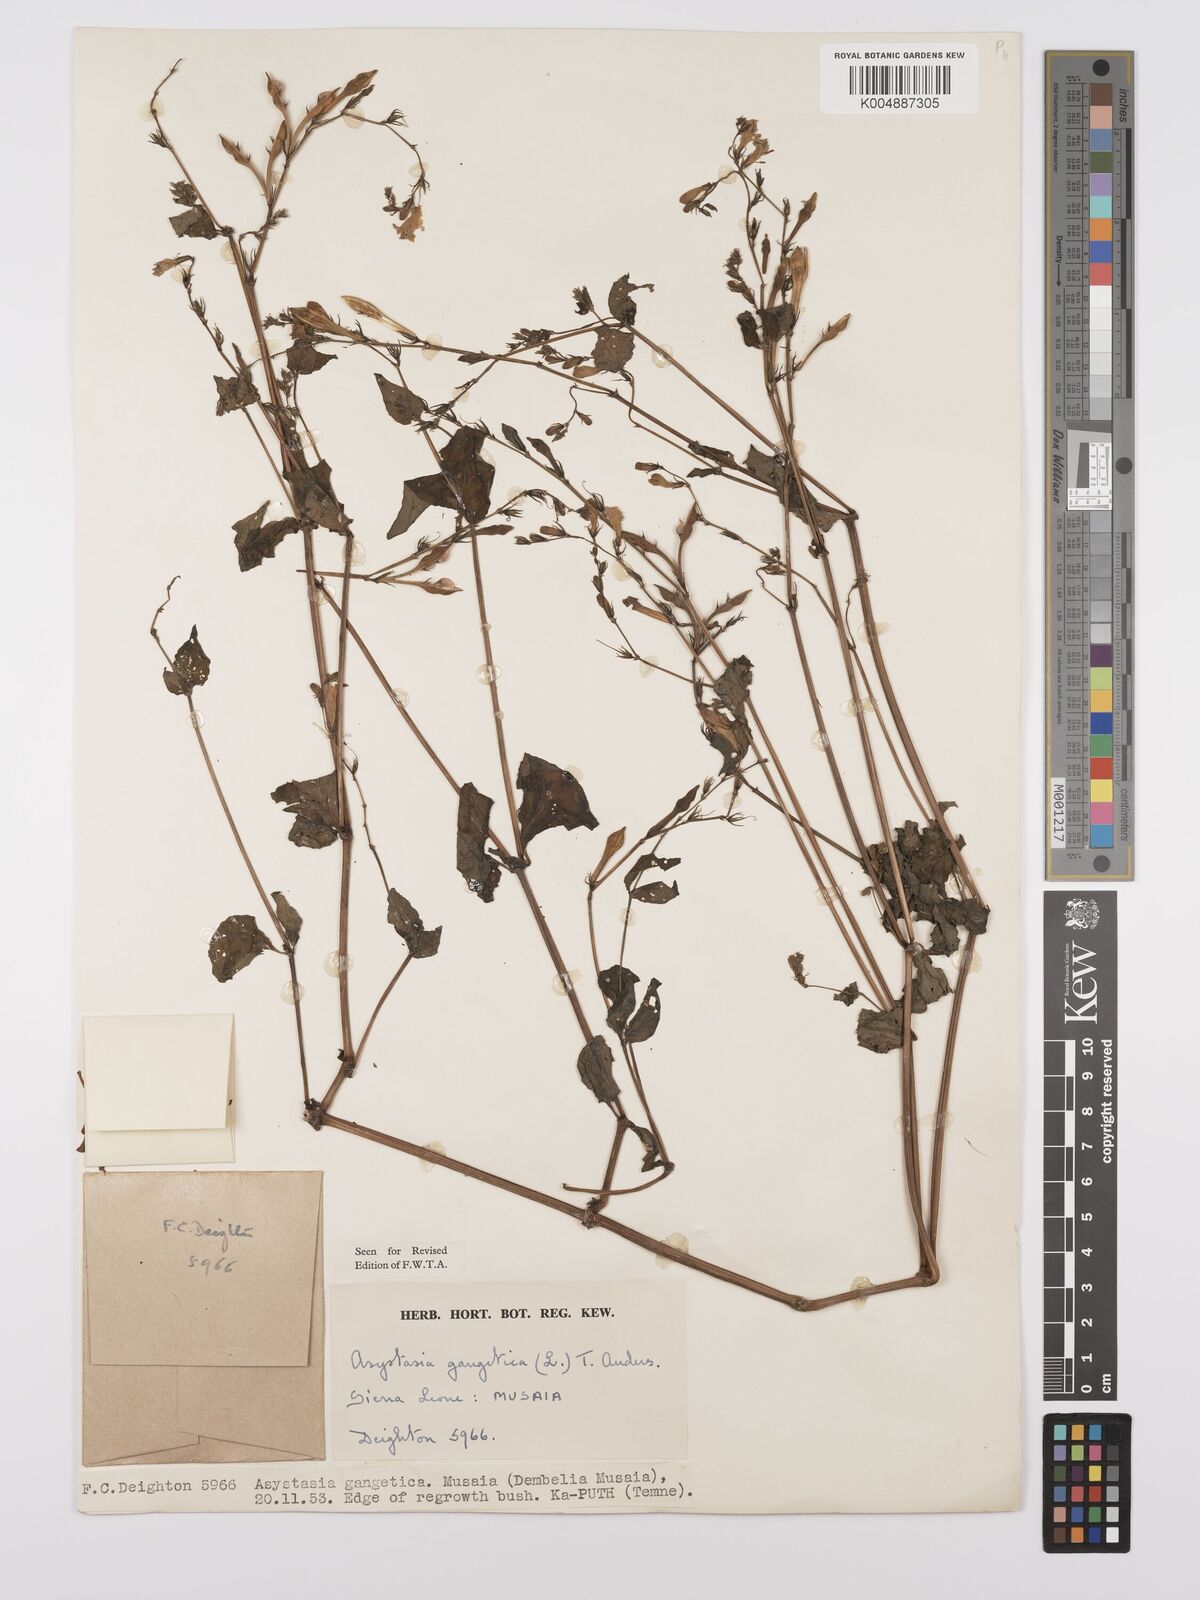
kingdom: Plantae
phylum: Tracheophyta
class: Magnoliopsida
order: Lamiales
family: Acanthaceae
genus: Asystasia
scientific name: Asystasia gangetica
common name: Chinese violet
